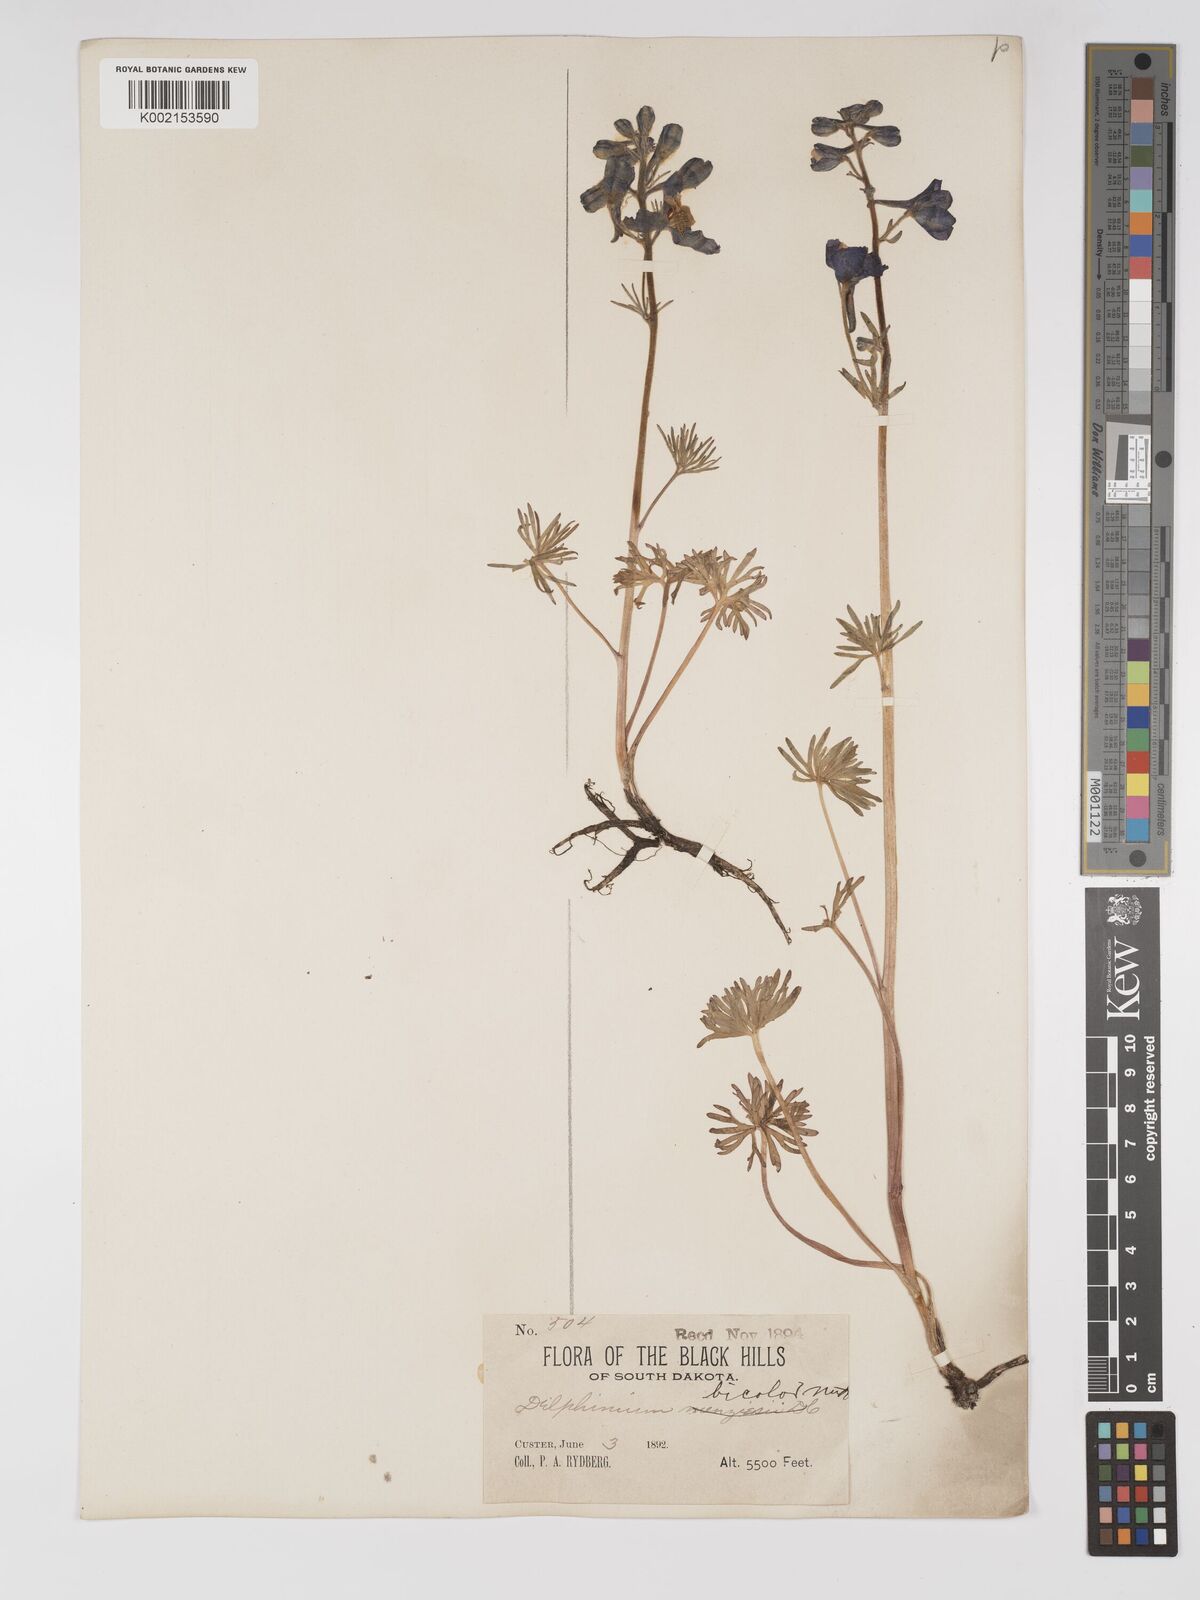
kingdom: Plantae
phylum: Tracheophyta
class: Magnoliopsida
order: Ranunculales
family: Ranunculaceae
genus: Delphinium
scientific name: Delphinium bicolor
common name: Low larkspur
